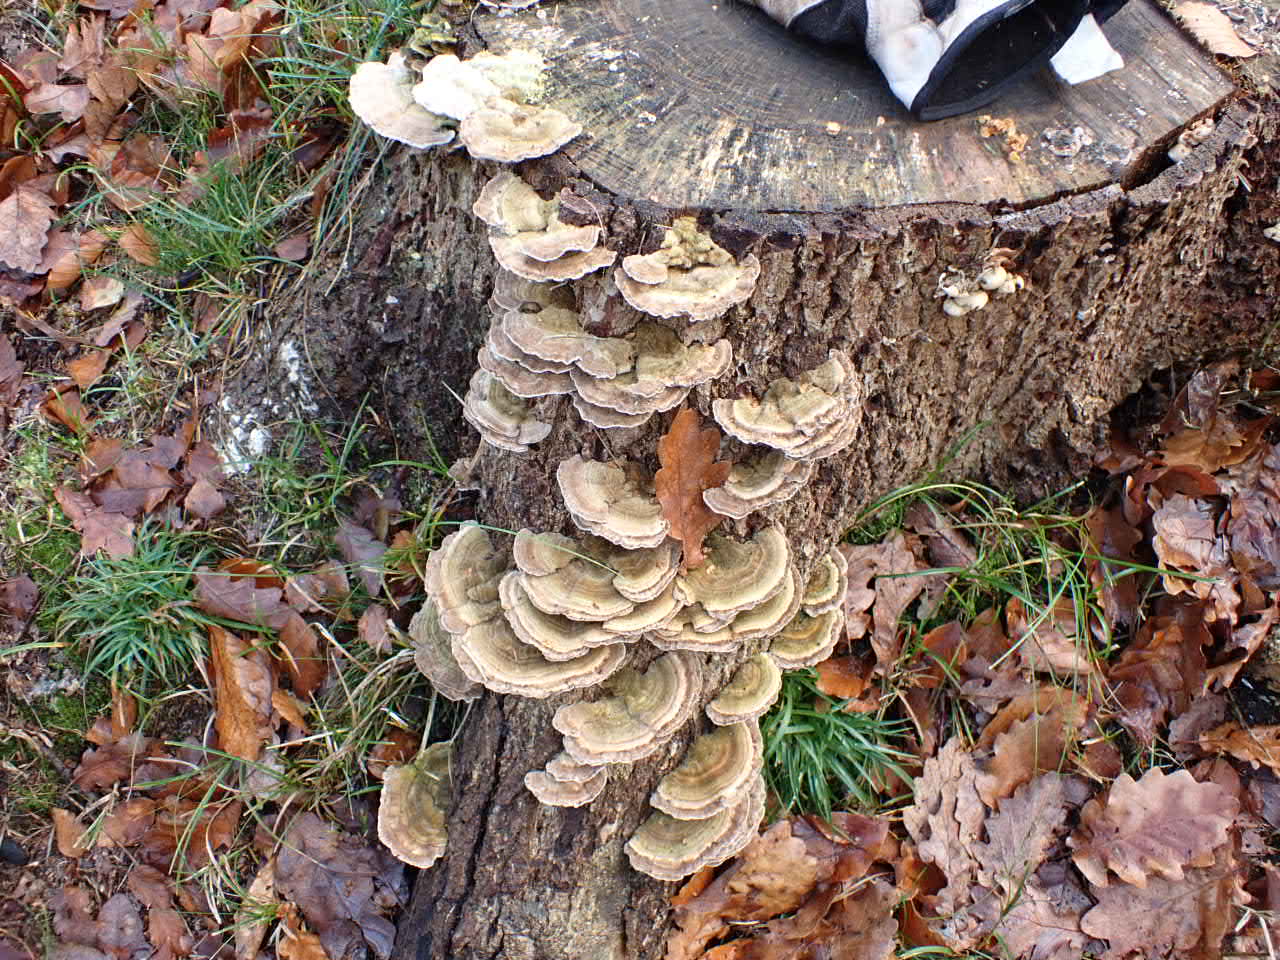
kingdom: Fungi
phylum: Basidiomycota
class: Agaricomycetes
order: Polyporales
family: Polyporaceae
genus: Lenzites
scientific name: Lenzites betulinus
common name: birke-læderporesvamp
